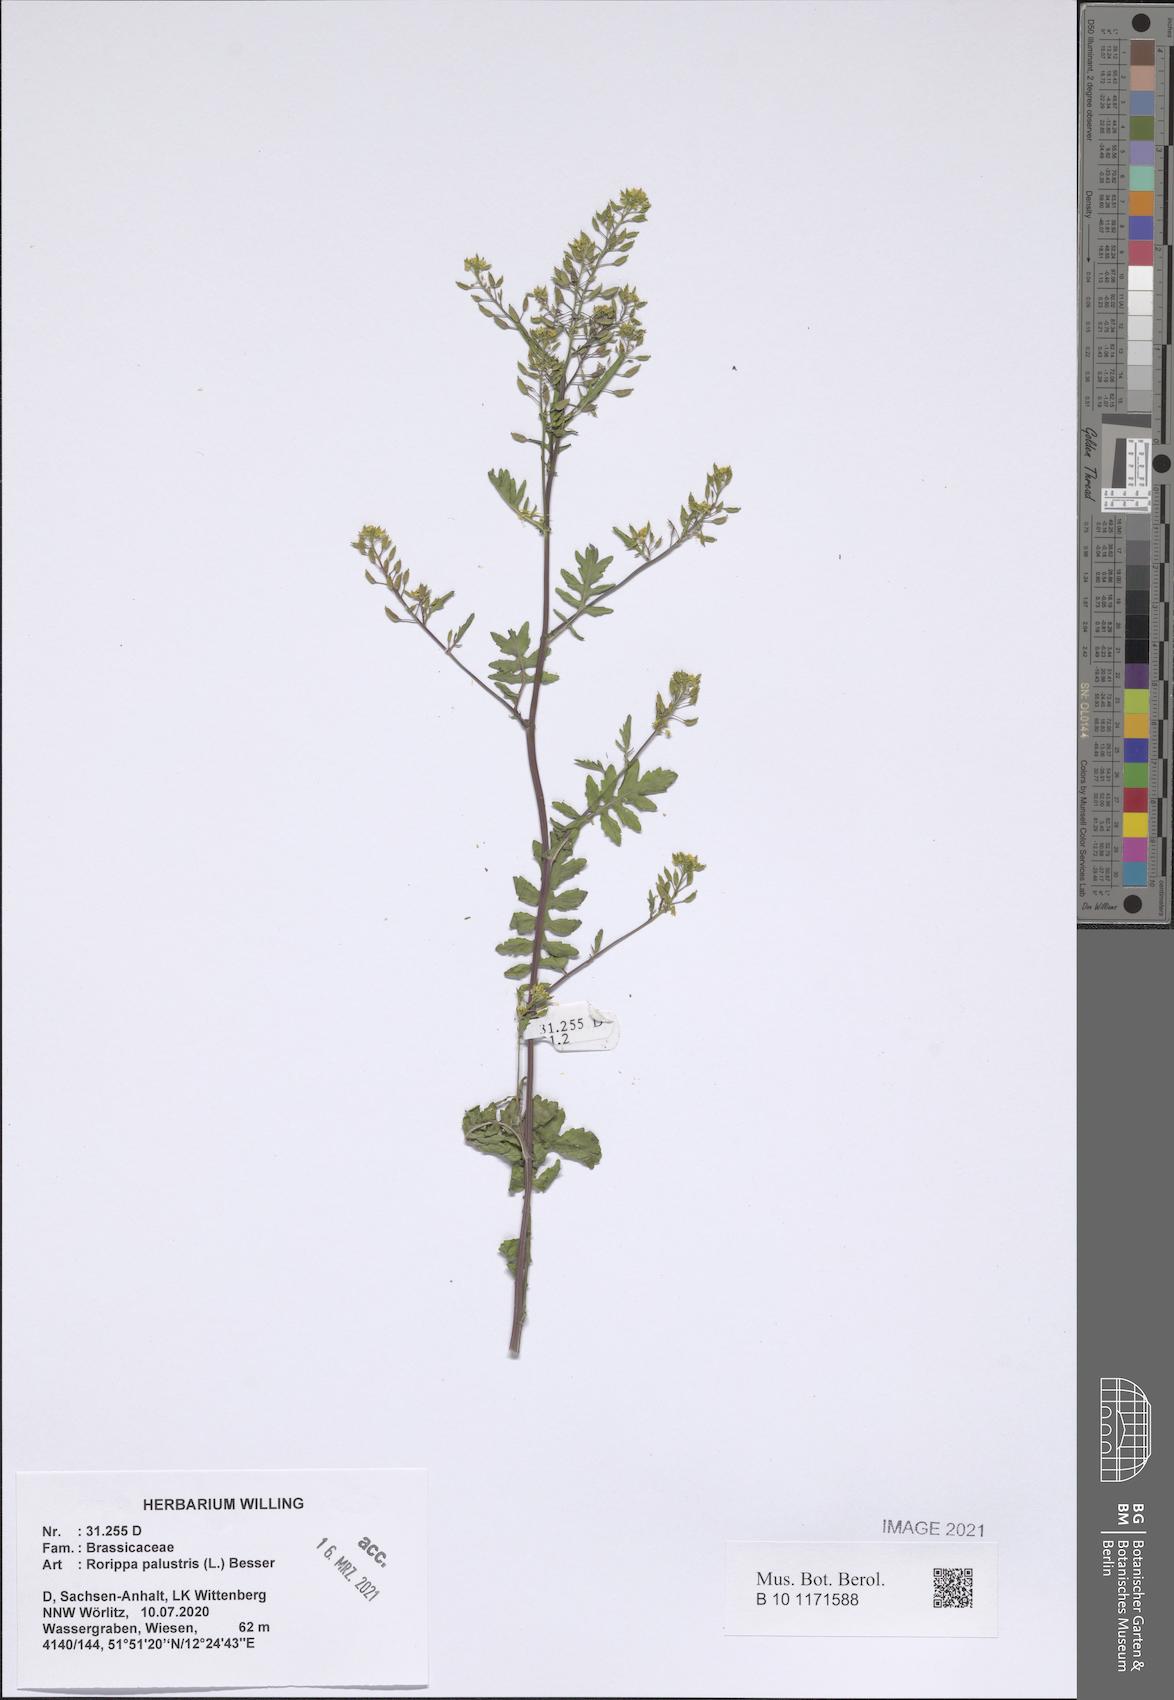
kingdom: Plantae
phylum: Tracheophyta
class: Magnoliopsida
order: Brassicales
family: Brassicaceae
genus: Rorippa
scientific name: Rorippa palustris
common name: Marsh yellow-cress
